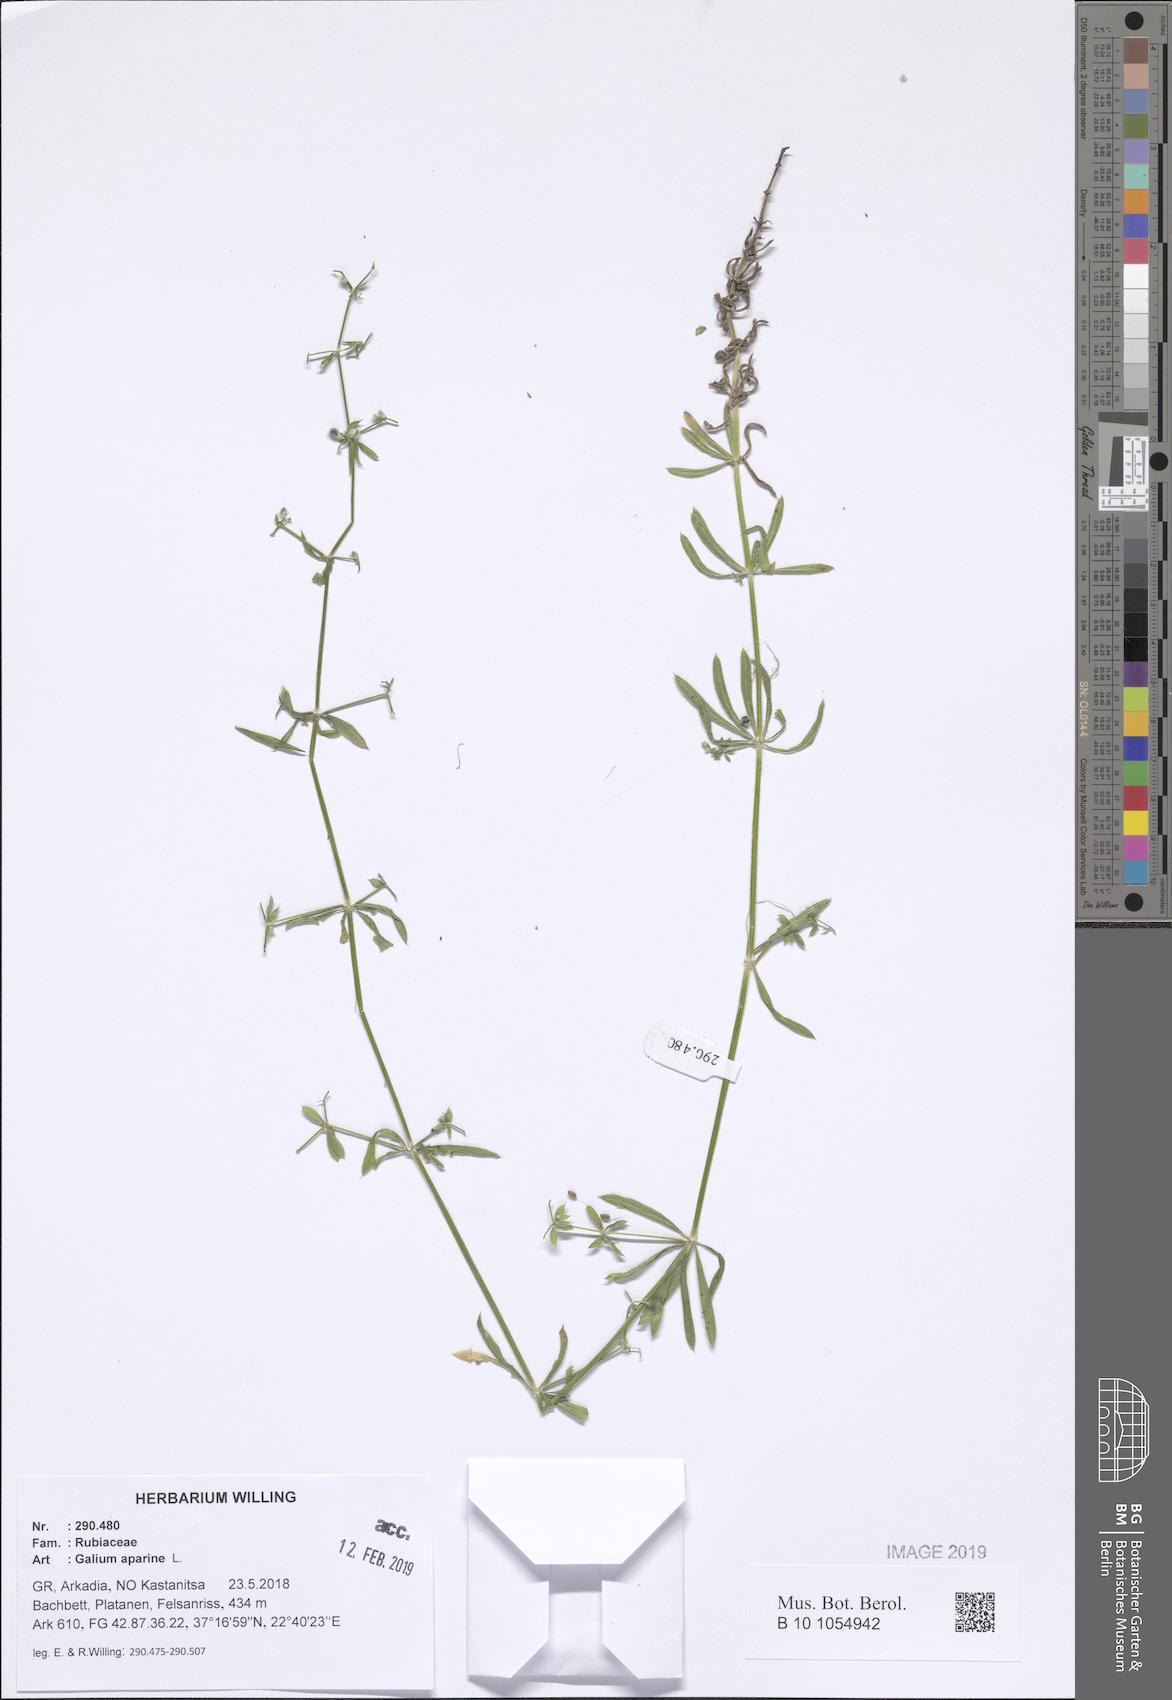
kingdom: Plantae
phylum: Tracheophyta
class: Magnoliopsida
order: Gentianales
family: Rubiaceae
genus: Galium
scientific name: Galium aparine
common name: Cleavers
